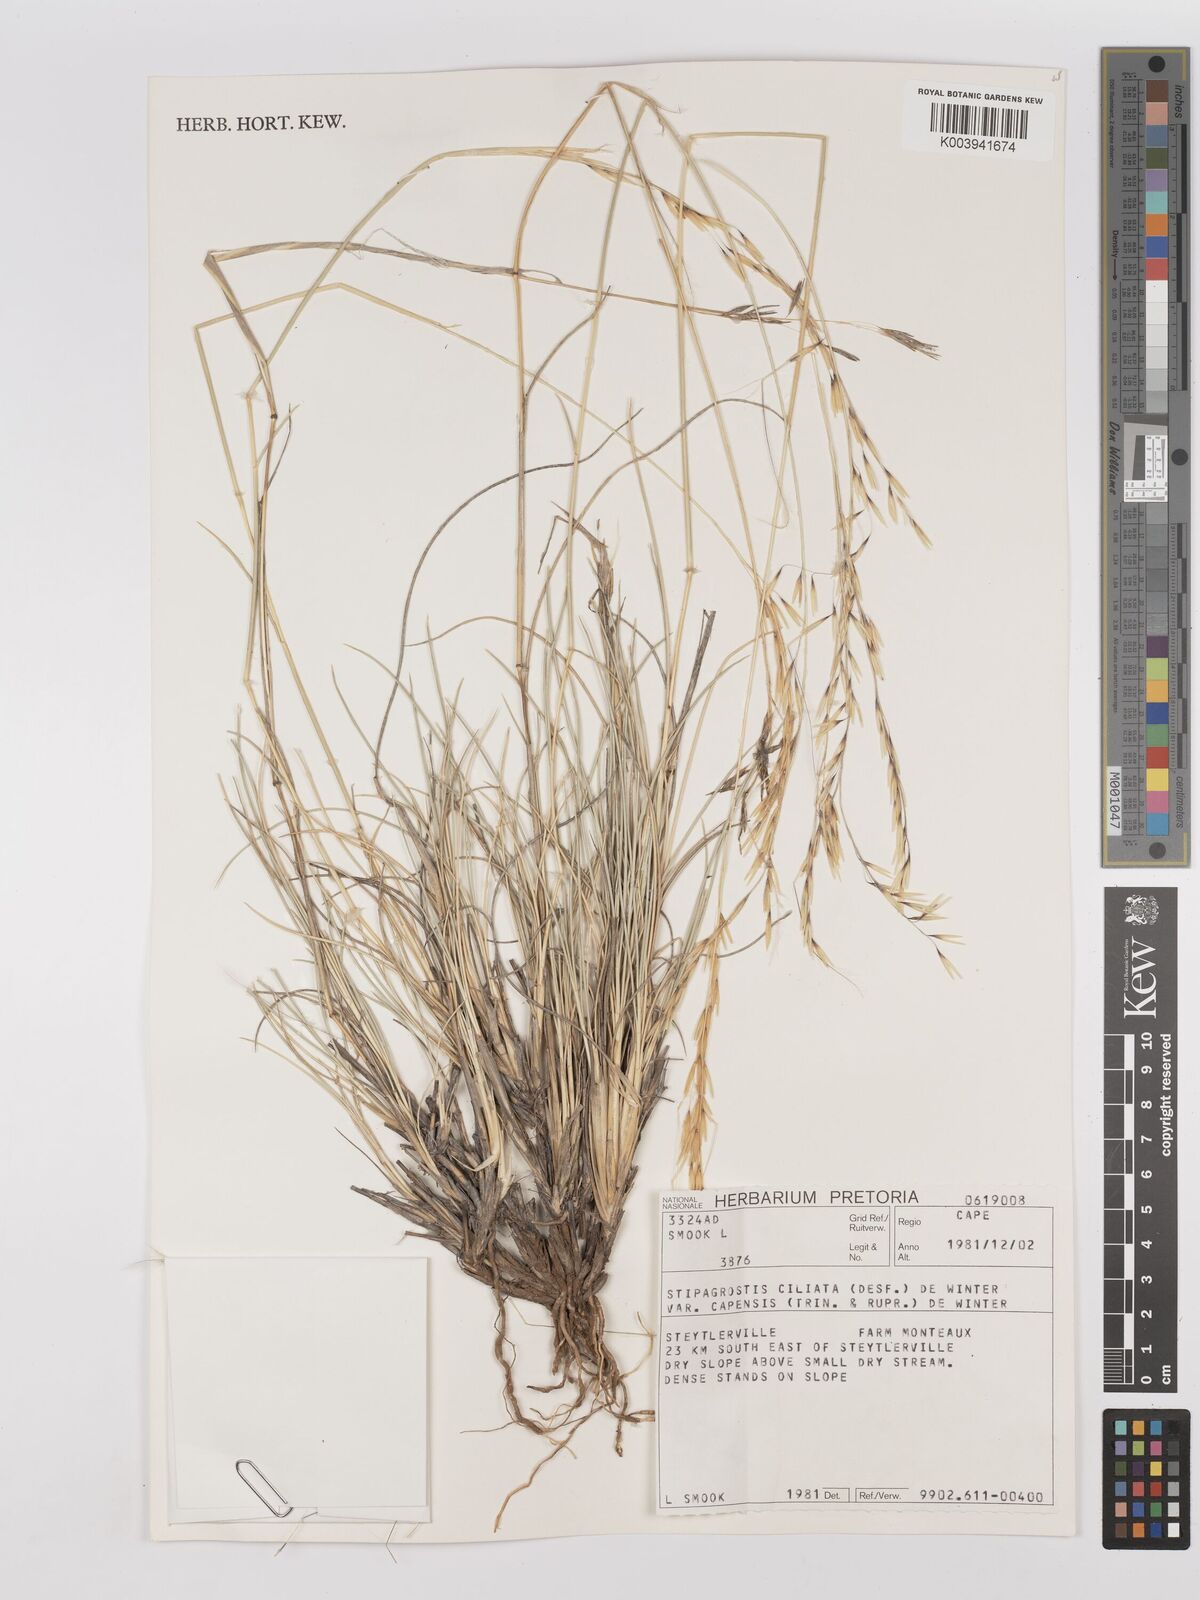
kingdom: Plantae
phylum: Tracheophyta
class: Liliopsida
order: Poales
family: Poaceae
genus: Stipagrostis
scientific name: Stipagrostis ciliata
